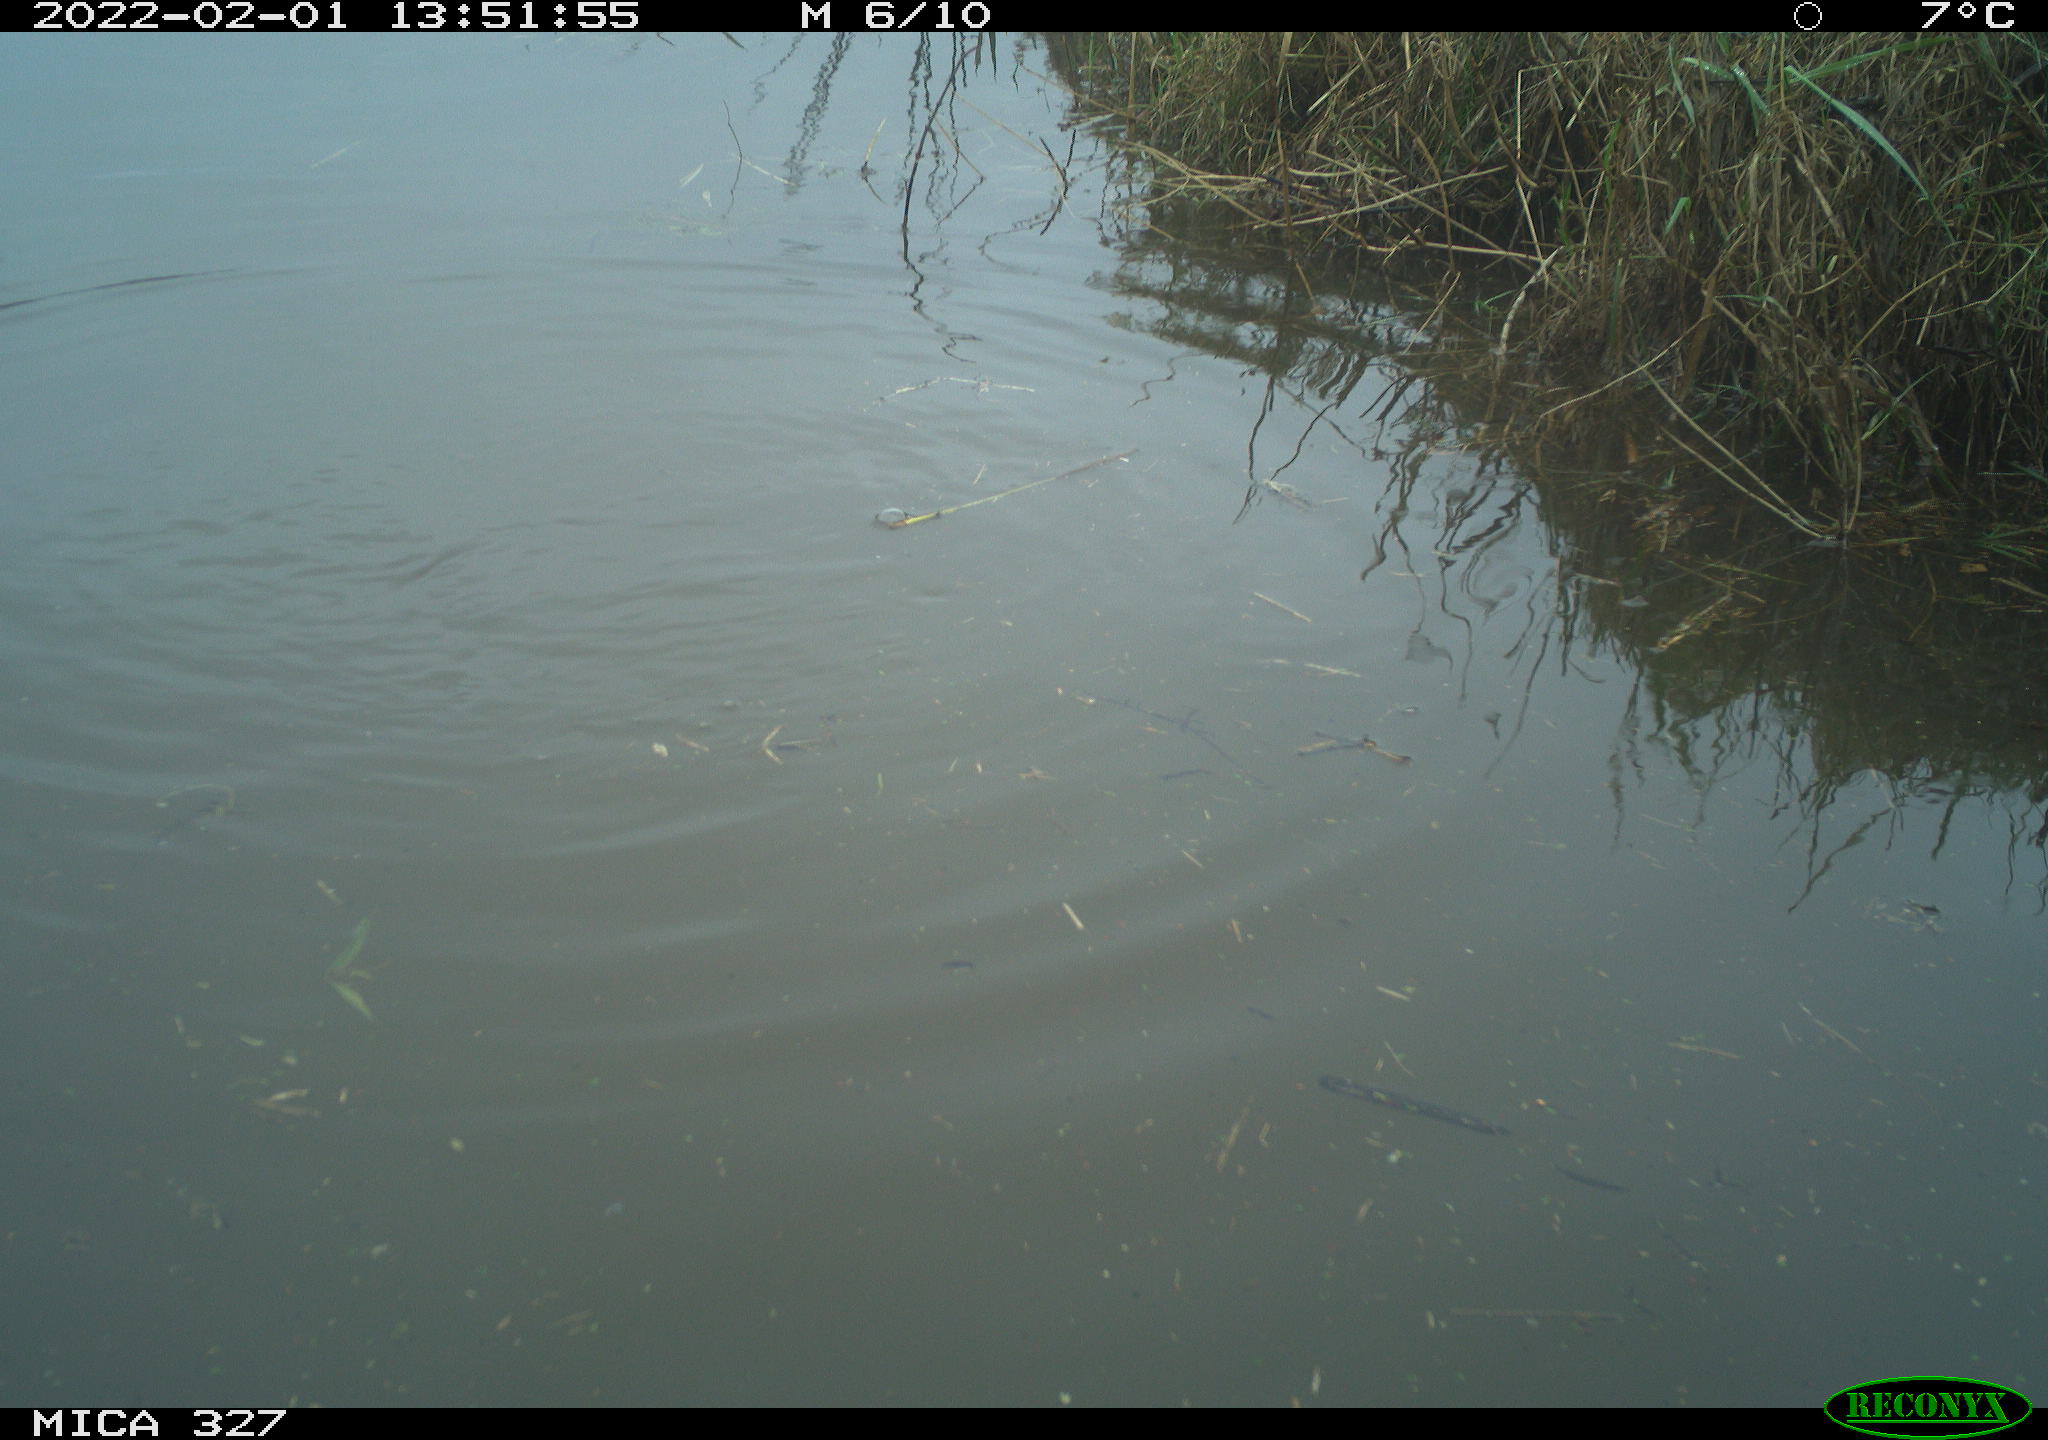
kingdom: Animalia
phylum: Chordata
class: Aves
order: Podicipediformes
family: Podicipedidae
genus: Tachybaptus
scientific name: Tachybaptus ruficollis
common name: Little grebe
